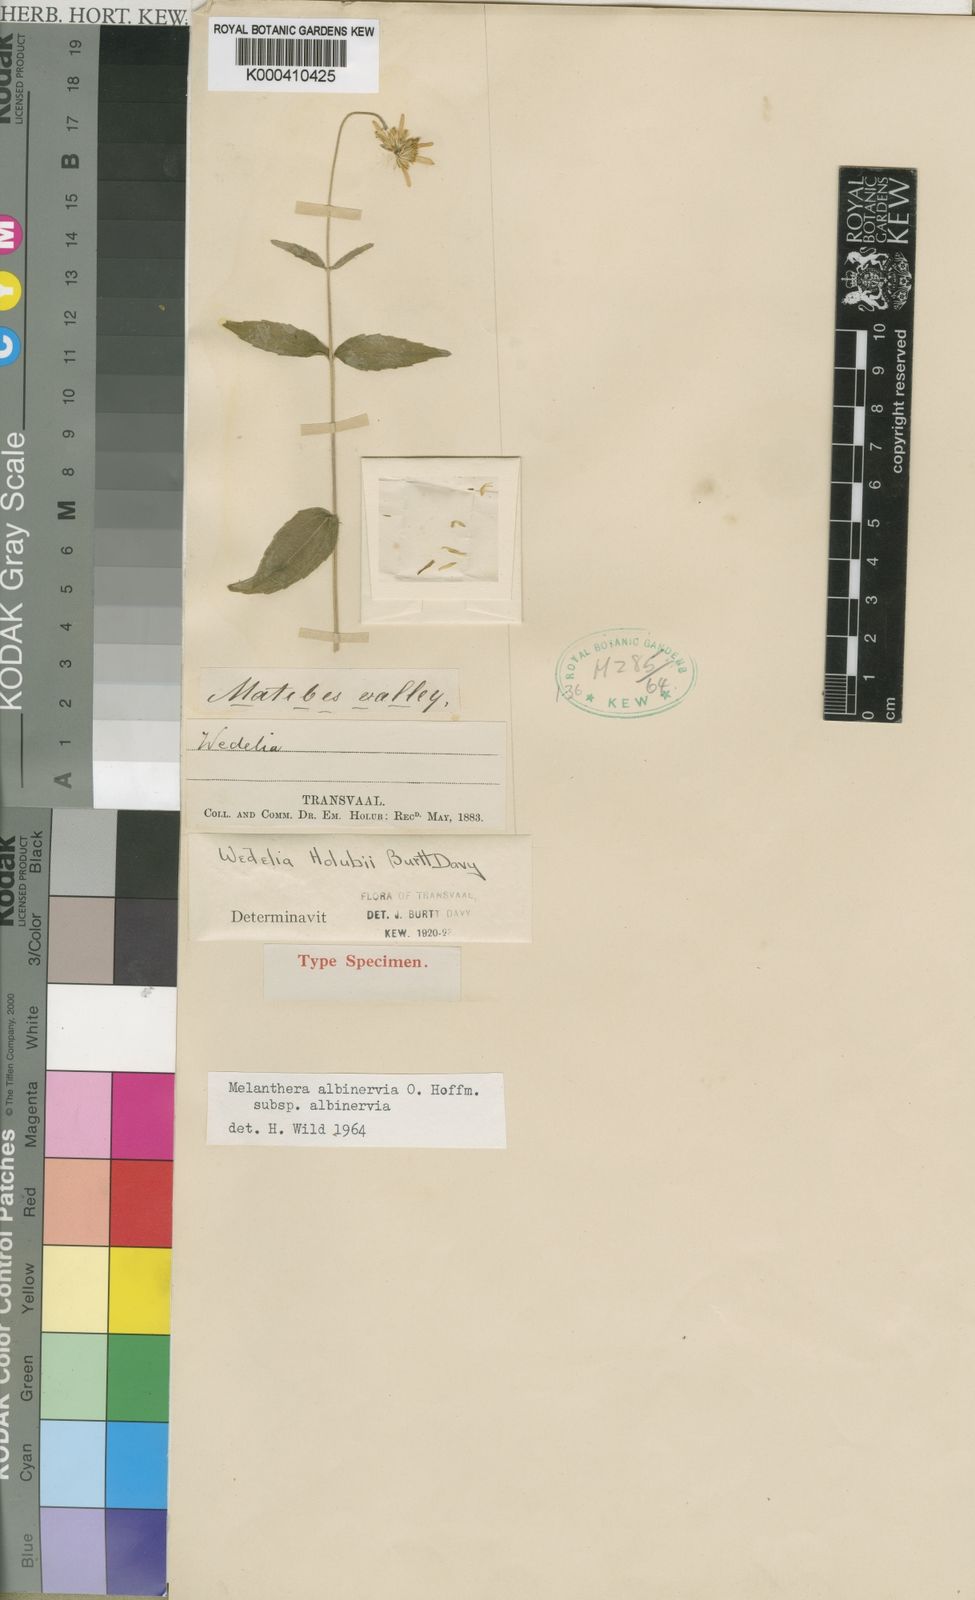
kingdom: Plantae
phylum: Tracheophyta
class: Magnoliopsida
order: Asterales
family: Asteraceae
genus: Lipotriche
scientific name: Lipotriche pungens
